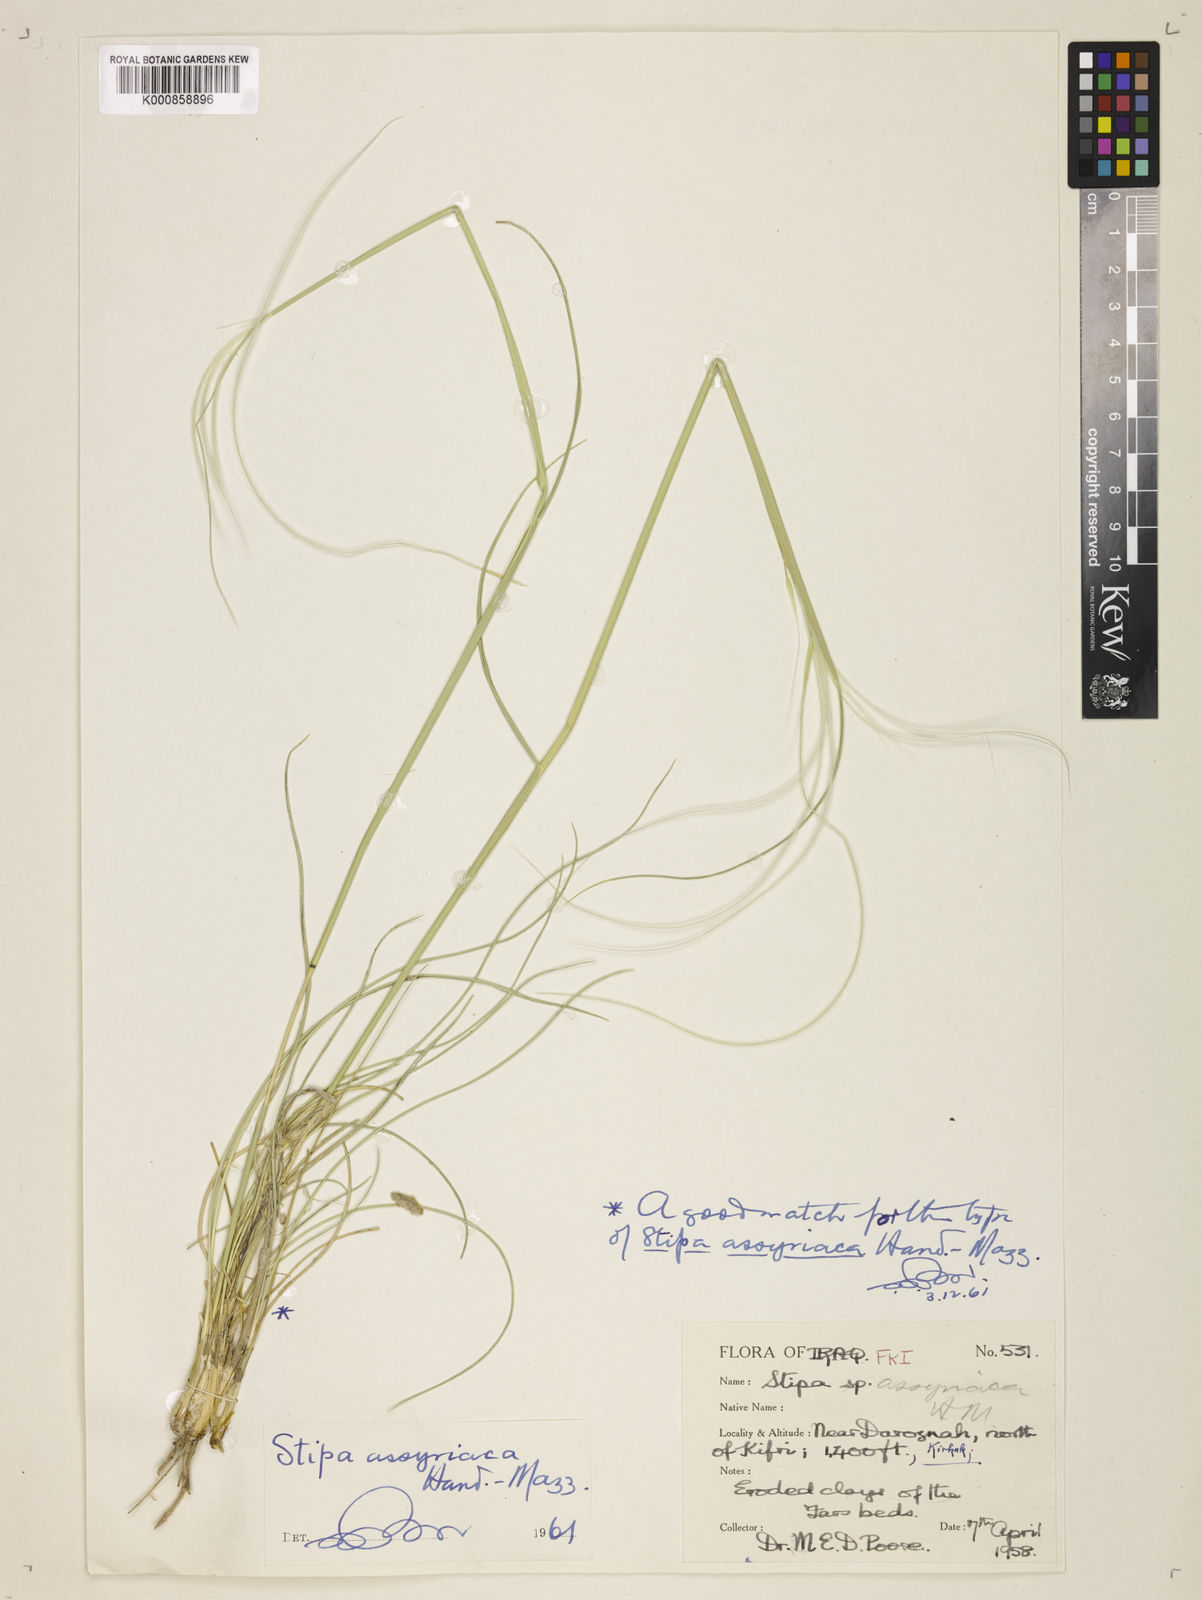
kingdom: Plantae
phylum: Tracheophyta
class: Liliopsida
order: Poales
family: Poaceae
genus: Stipa
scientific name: Stipa hohenackeriana
